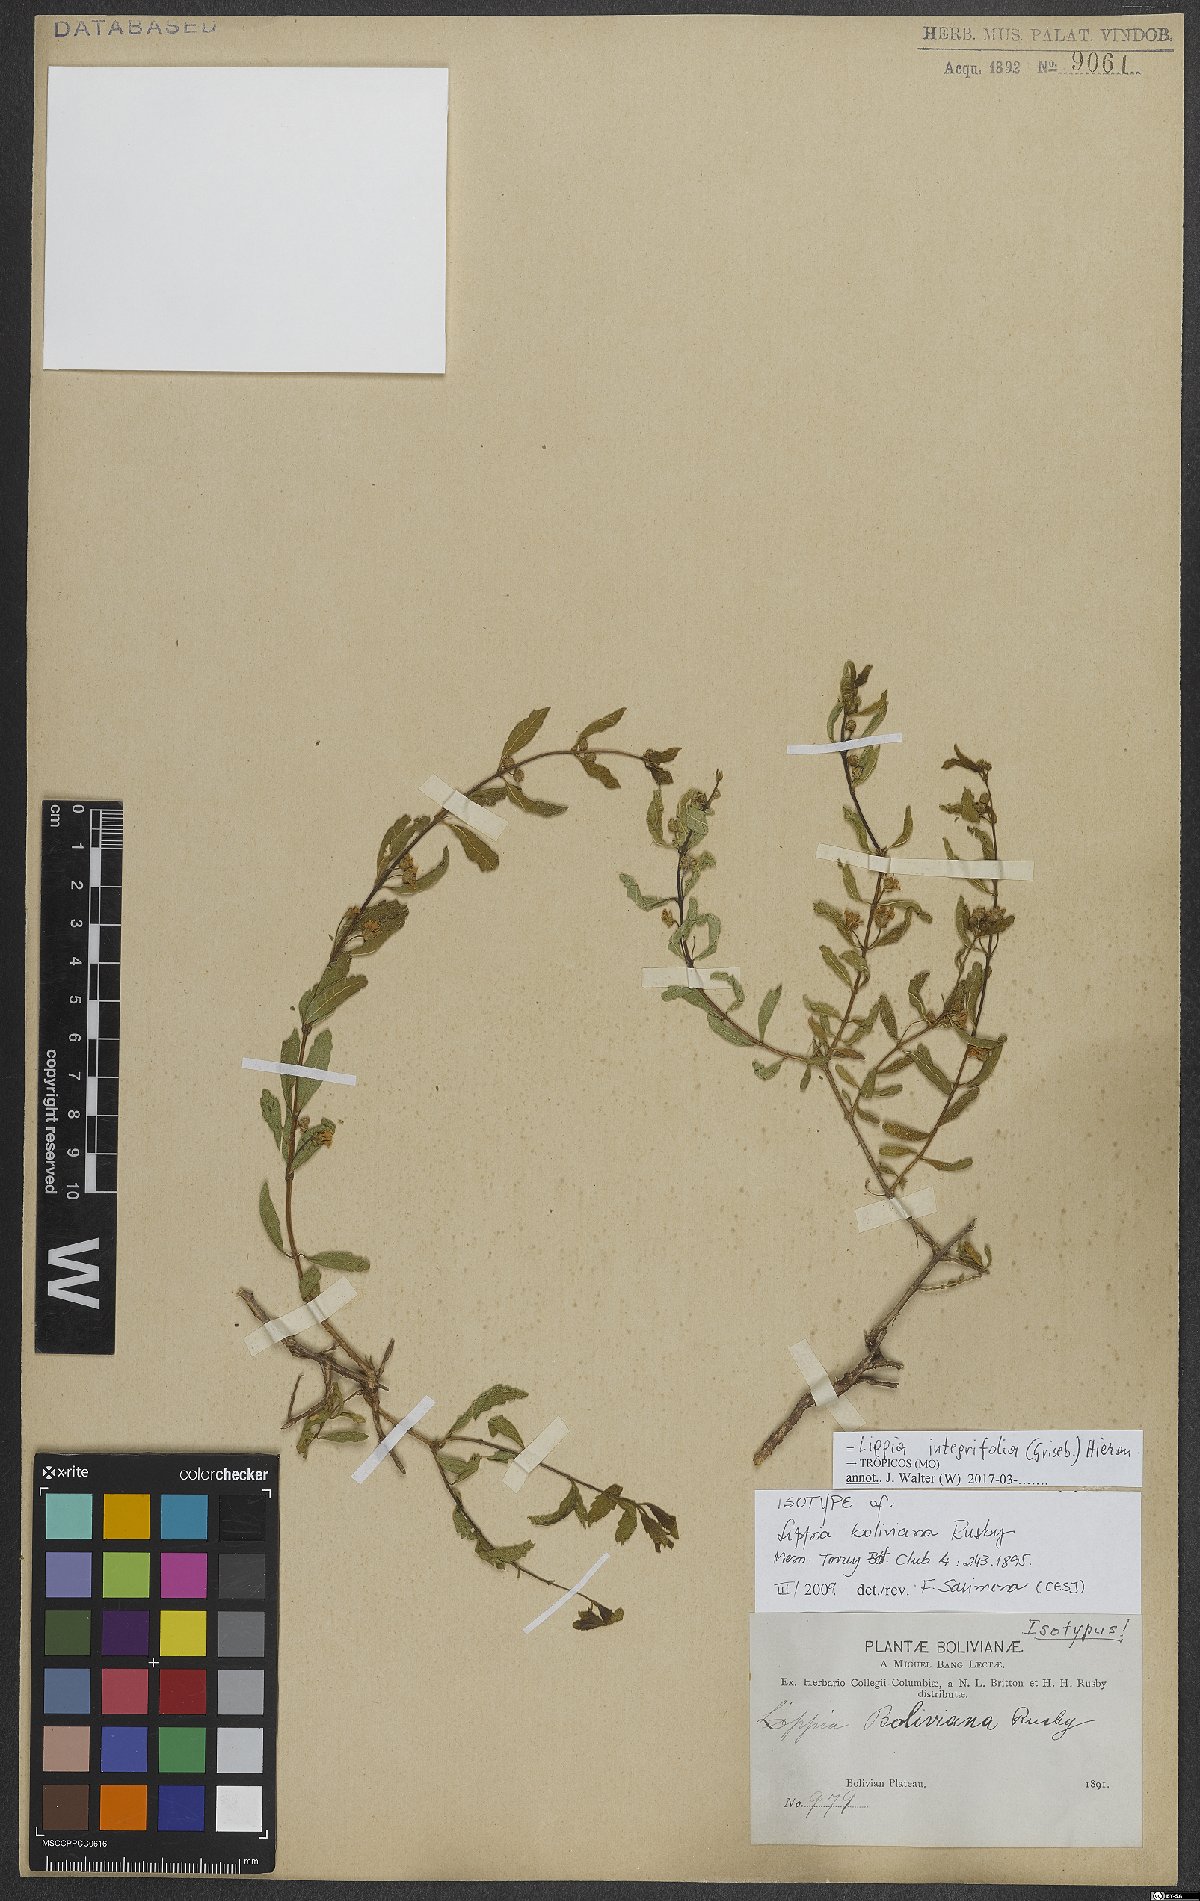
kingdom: Plantae
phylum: Tracheophyta
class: Magnoliopsida
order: Lamiales
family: Verbenaceae
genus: Lippia
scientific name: Lippia integrifolia
